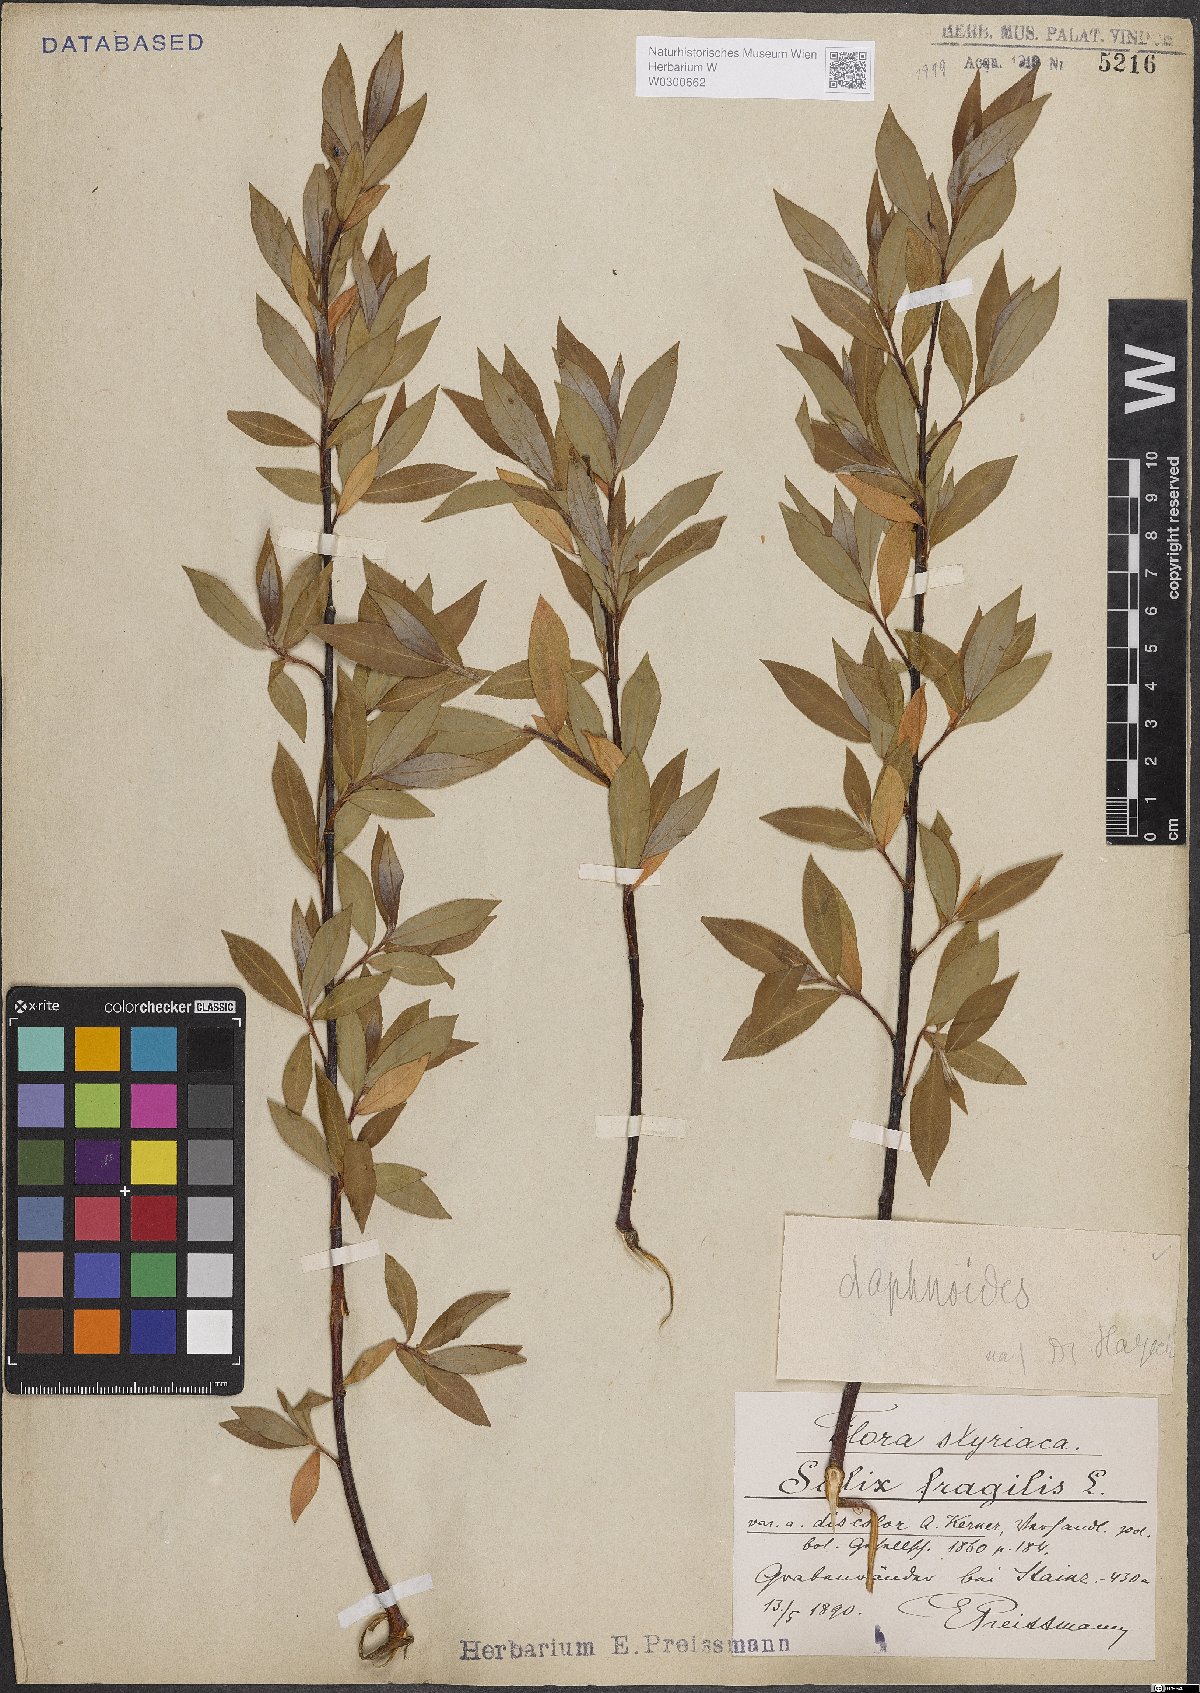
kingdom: Plantae
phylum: Tracheophyta
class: Magnoliopsida
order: Malpighiales
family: Salicaceae
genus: Salix
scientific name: Salix daphnoides
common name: European violet-willow
